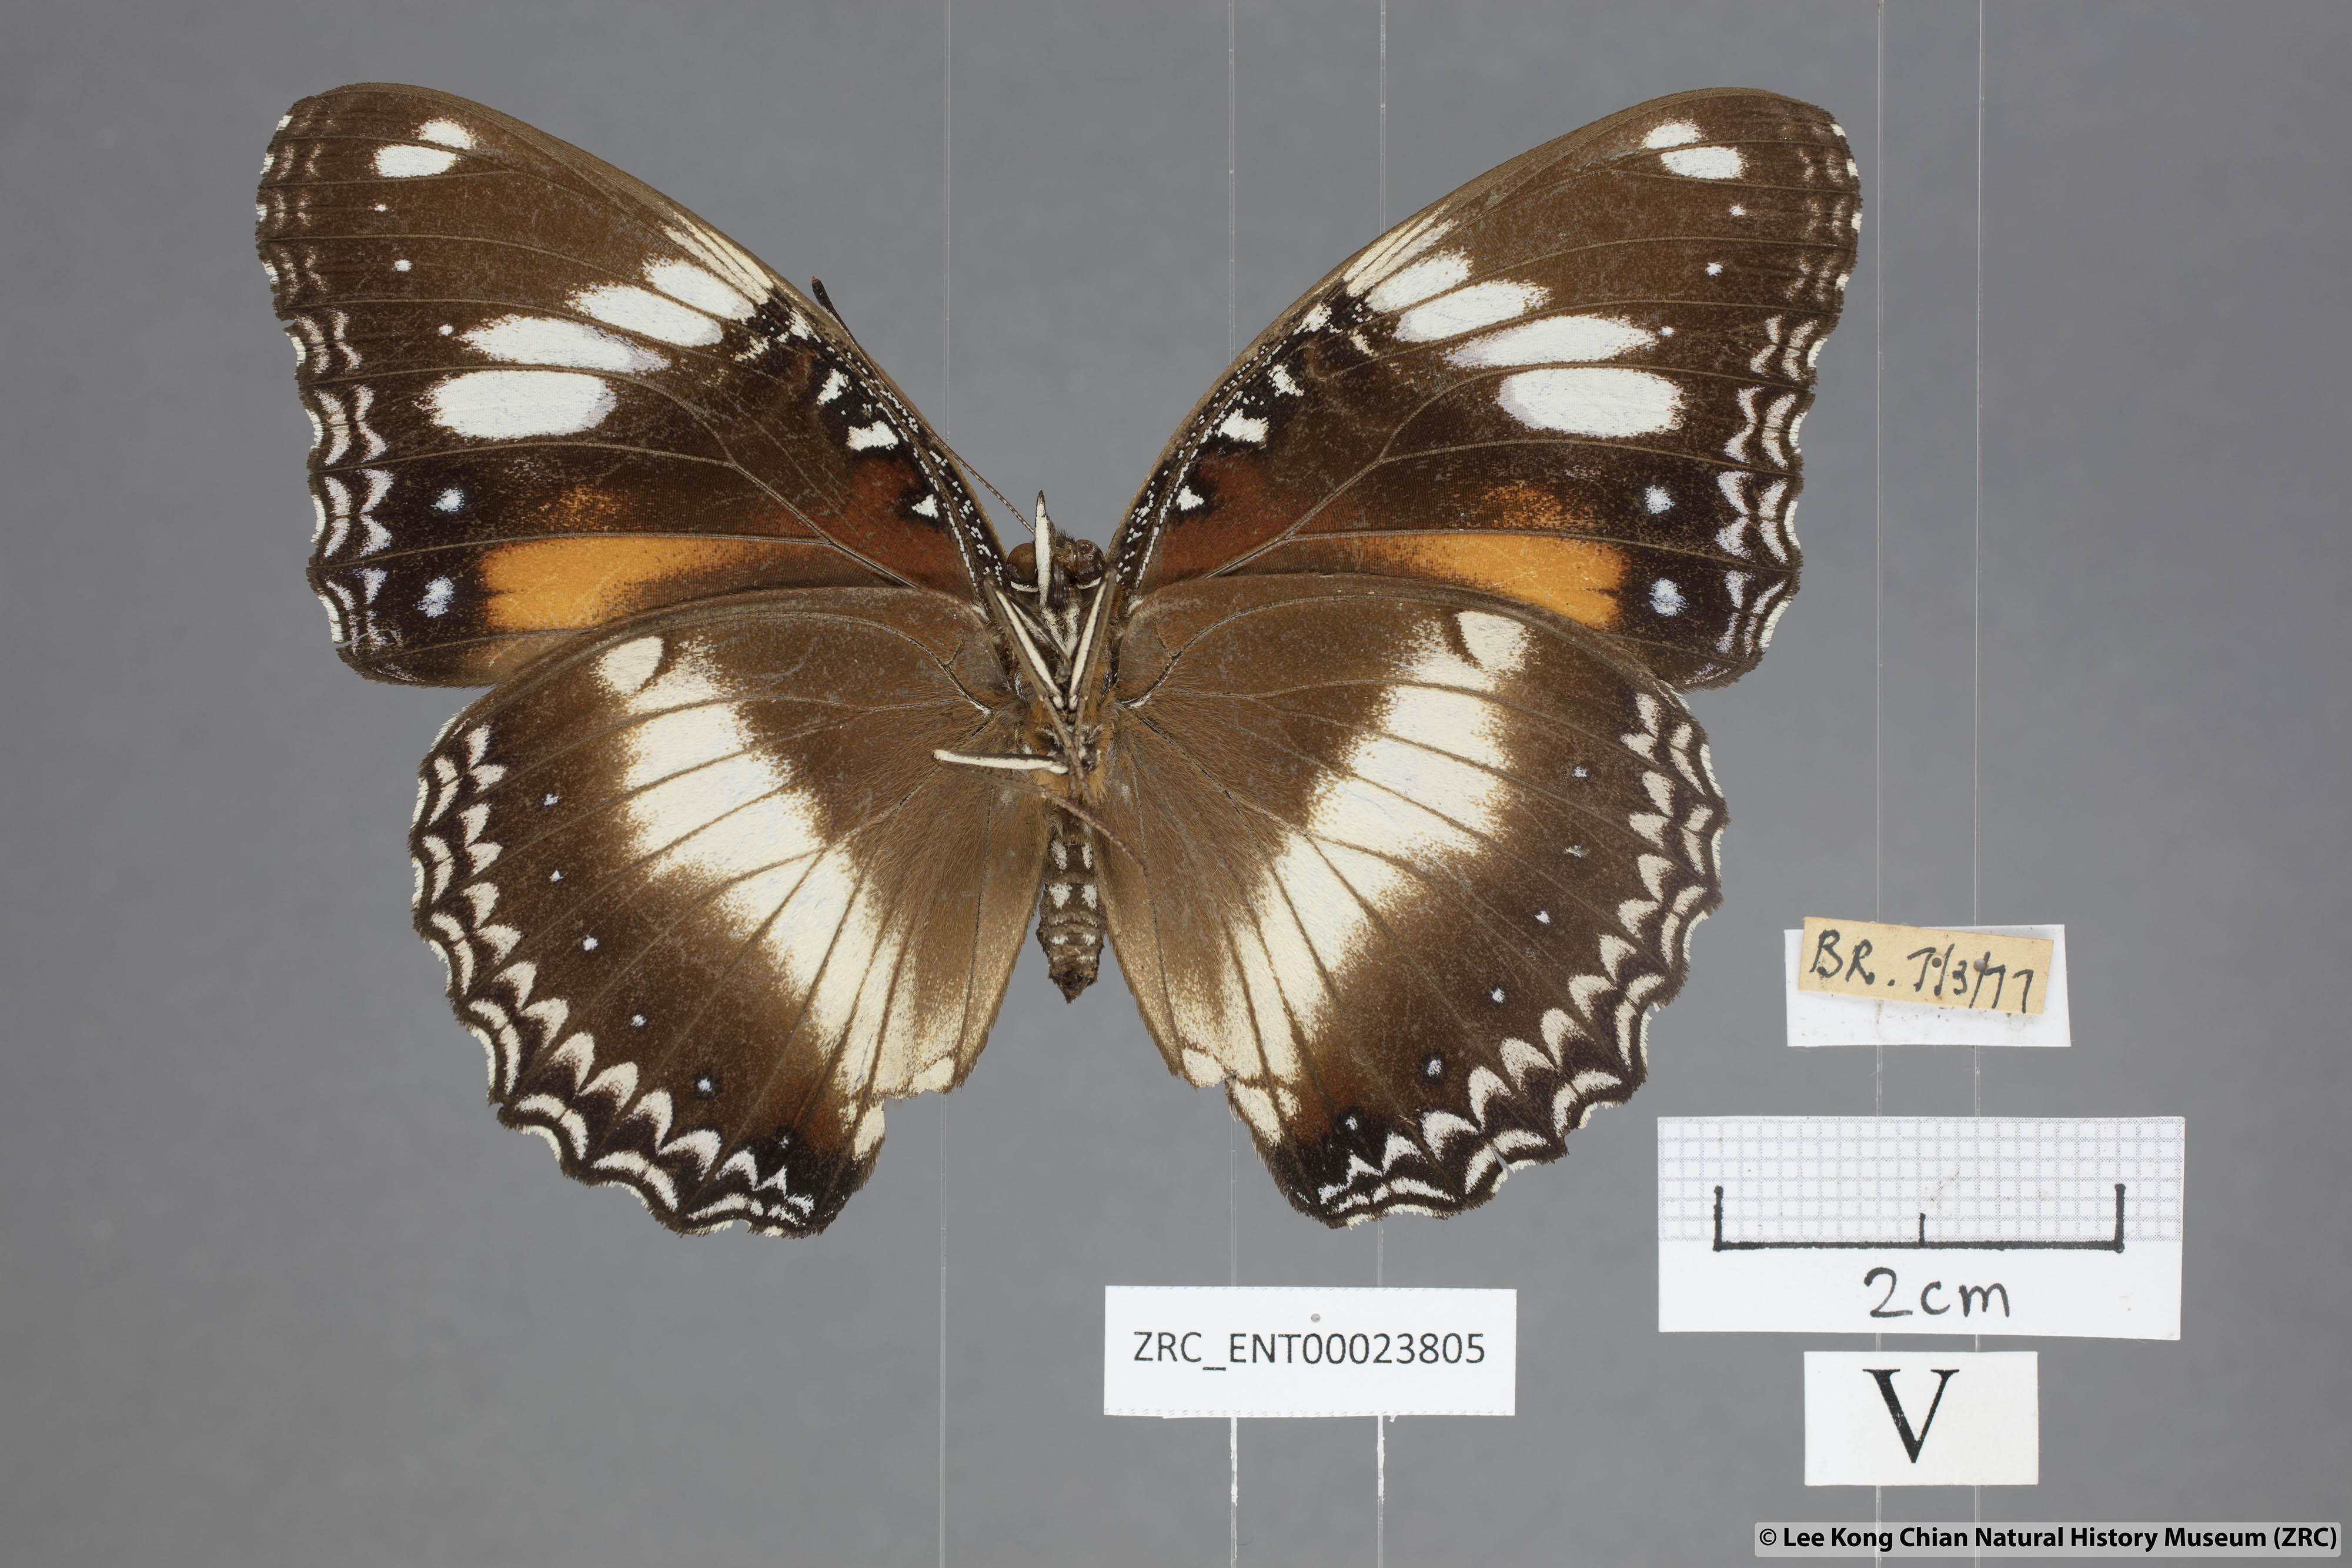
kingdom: Animalia
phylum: Arthropoda
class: Insecta
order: Lepidoptera
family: Nymphalidae
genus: Hypolimnas
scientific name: Hypolimnas bolina
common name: Great eggfly
